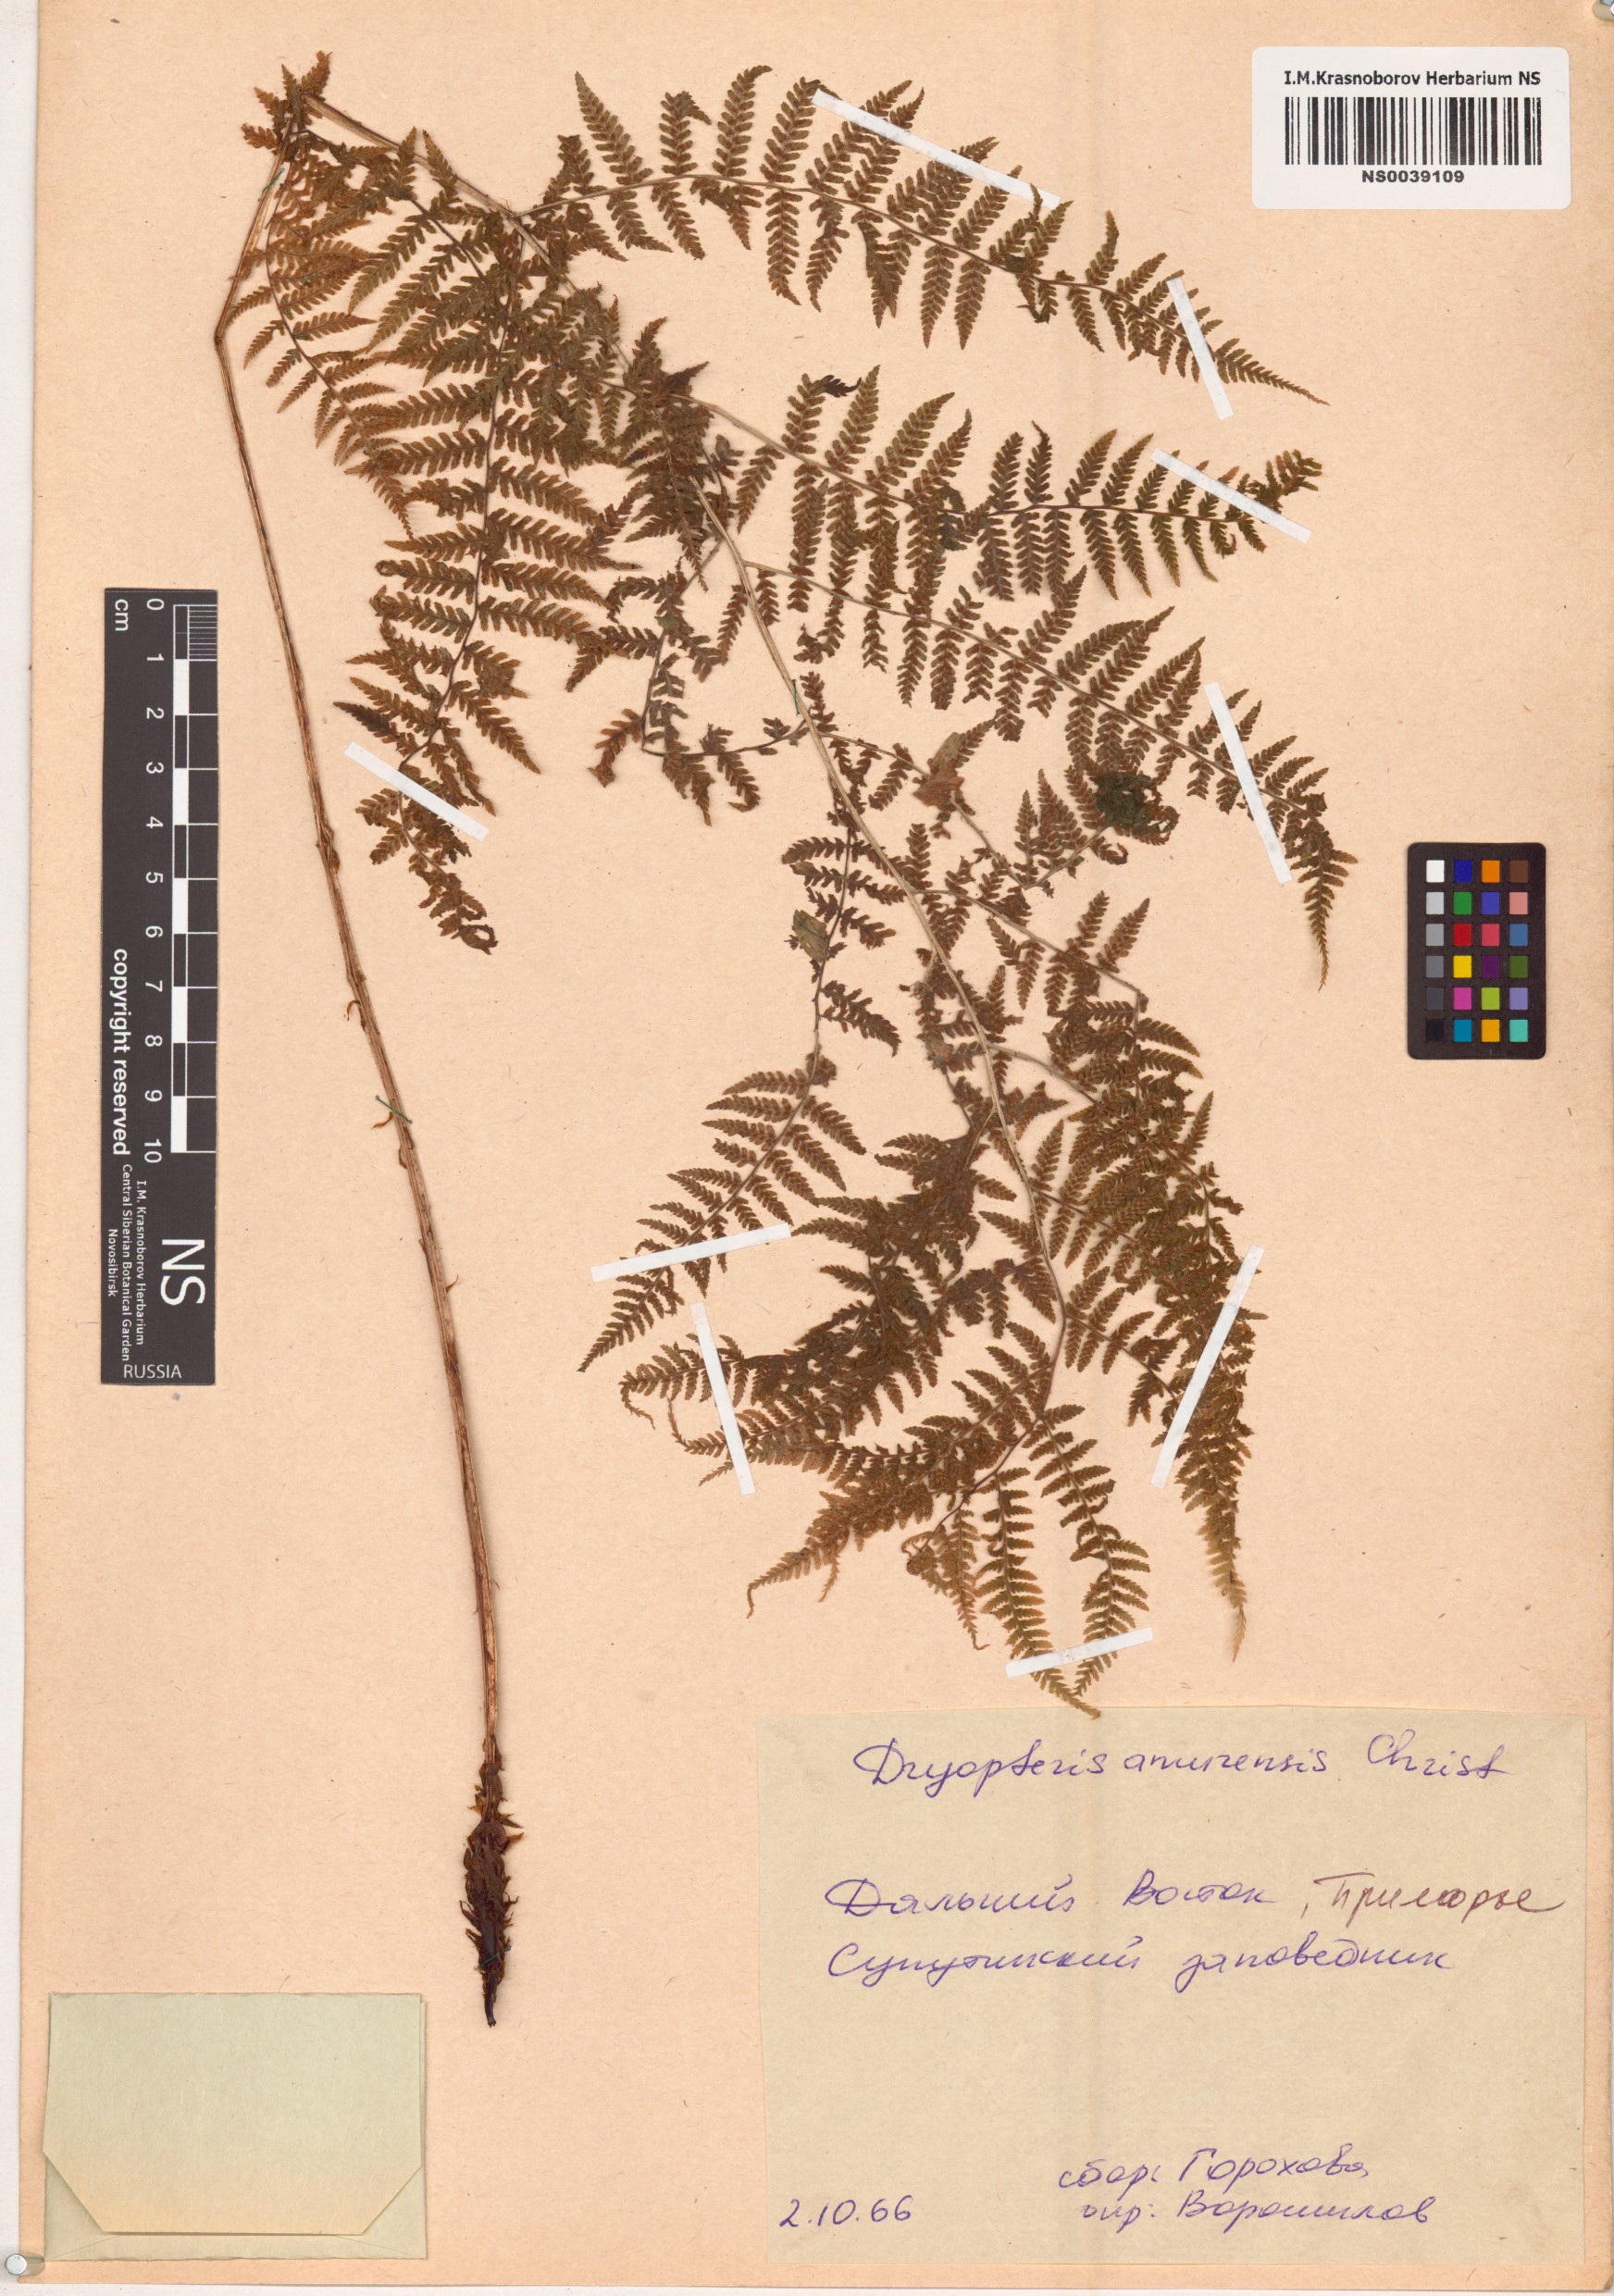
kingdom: Plantae
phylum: Tracheophyta
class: Polypodiopsida
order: Polypodiales
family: Dryopteridaceae
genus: Dryopteris
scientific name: Dryopteris amurensis
